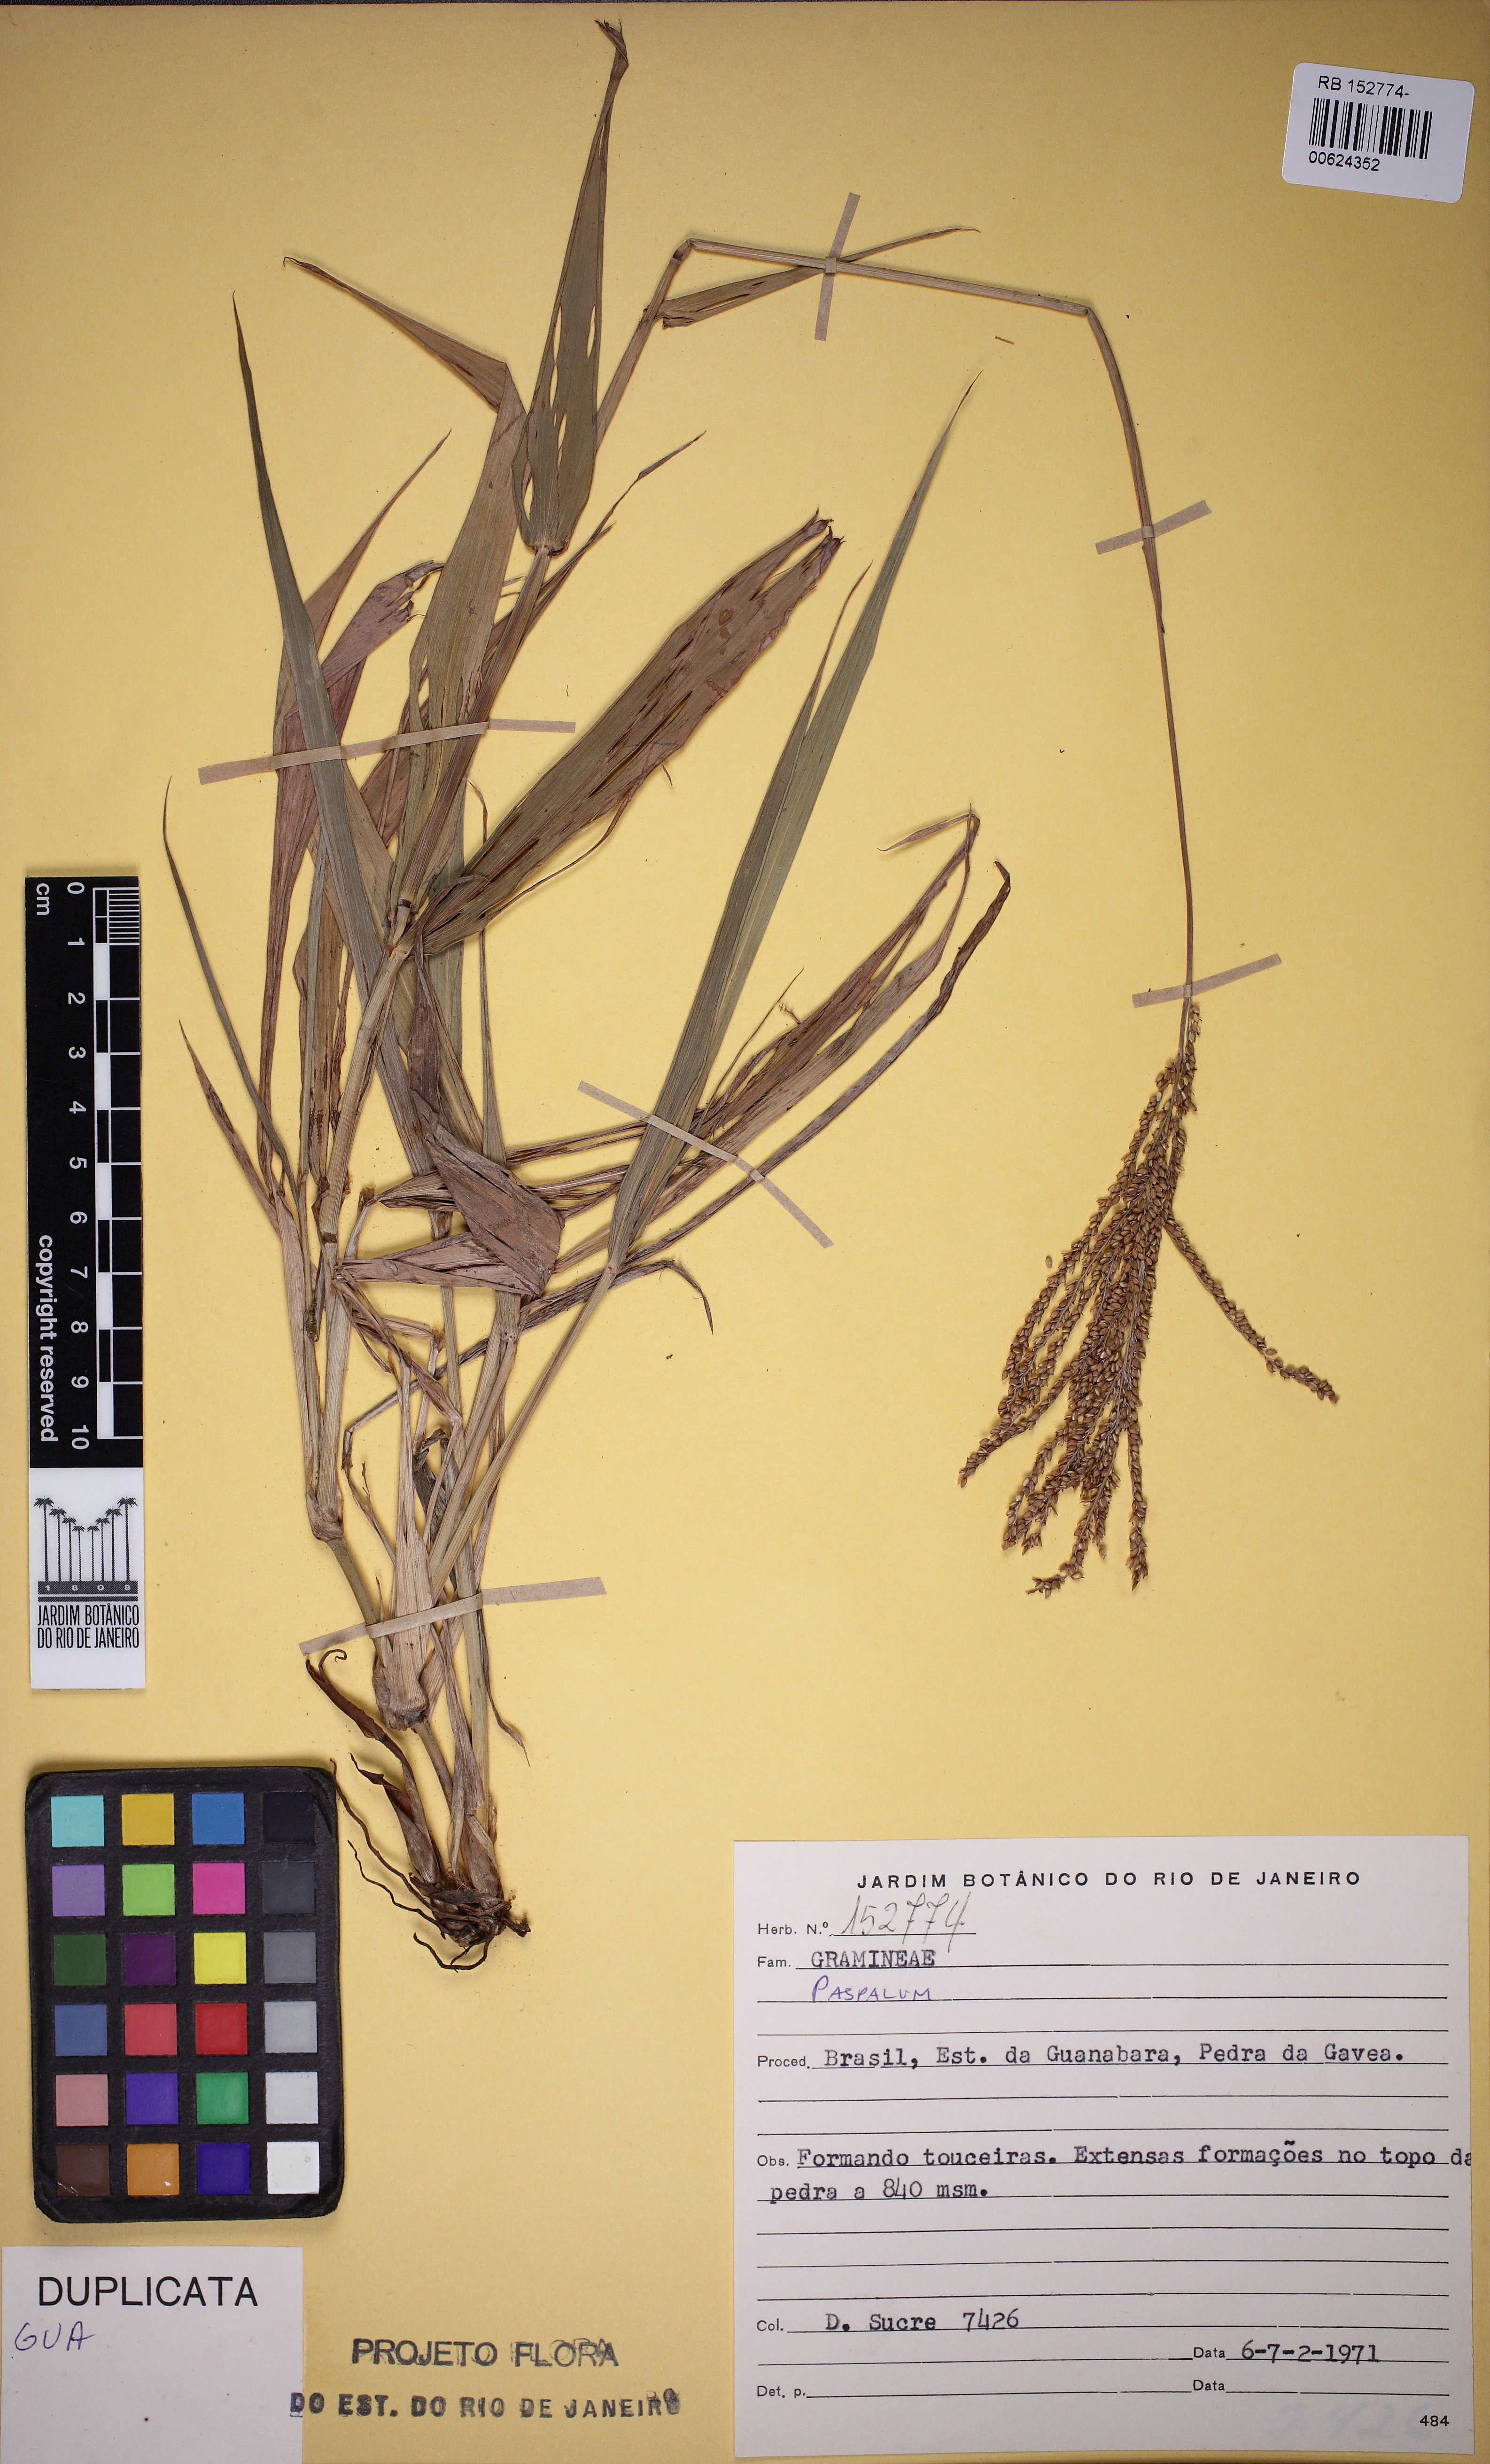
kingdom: Plantae
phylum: Tracheophyta
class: Liliopsida
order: Poales
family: Poaceae
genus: Paspalum
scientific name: Paspalum
